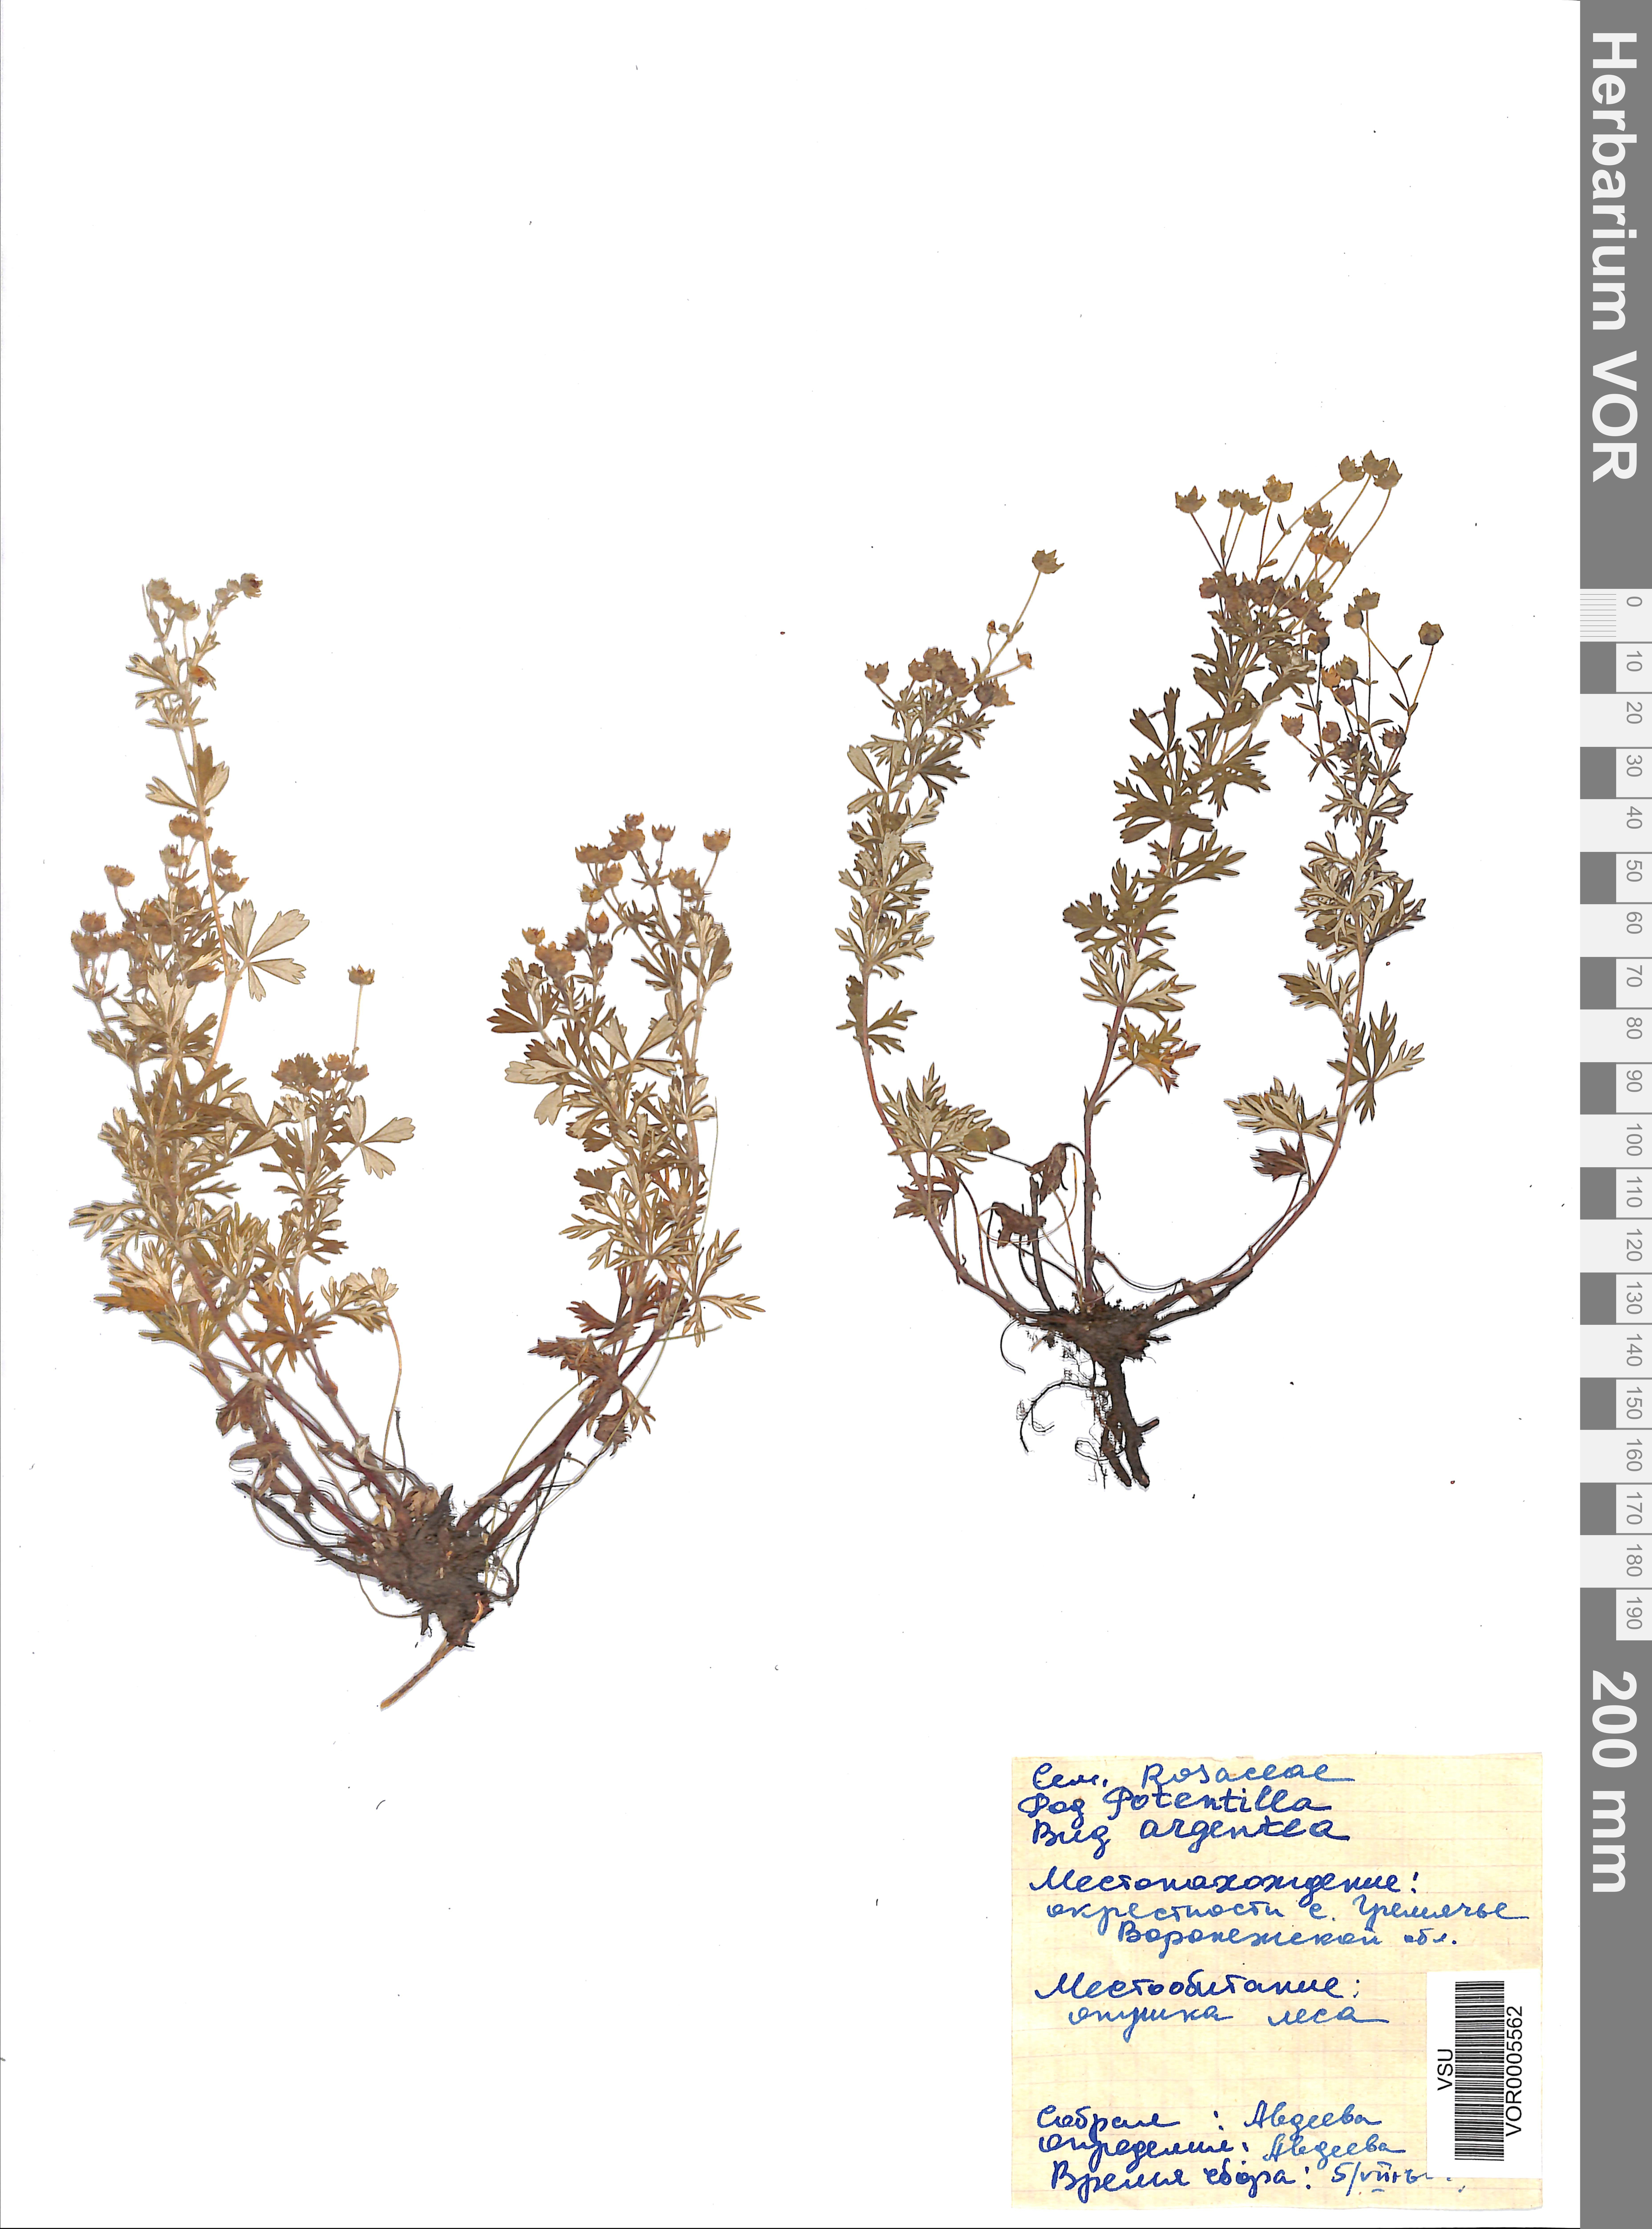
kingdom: Plantae
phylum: Tracheophyta
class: Magnoliopsida
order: Rosales
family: Rosaceae
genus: Potentilla
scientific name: Potentilla argentea
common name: Hoary cinquefoil
